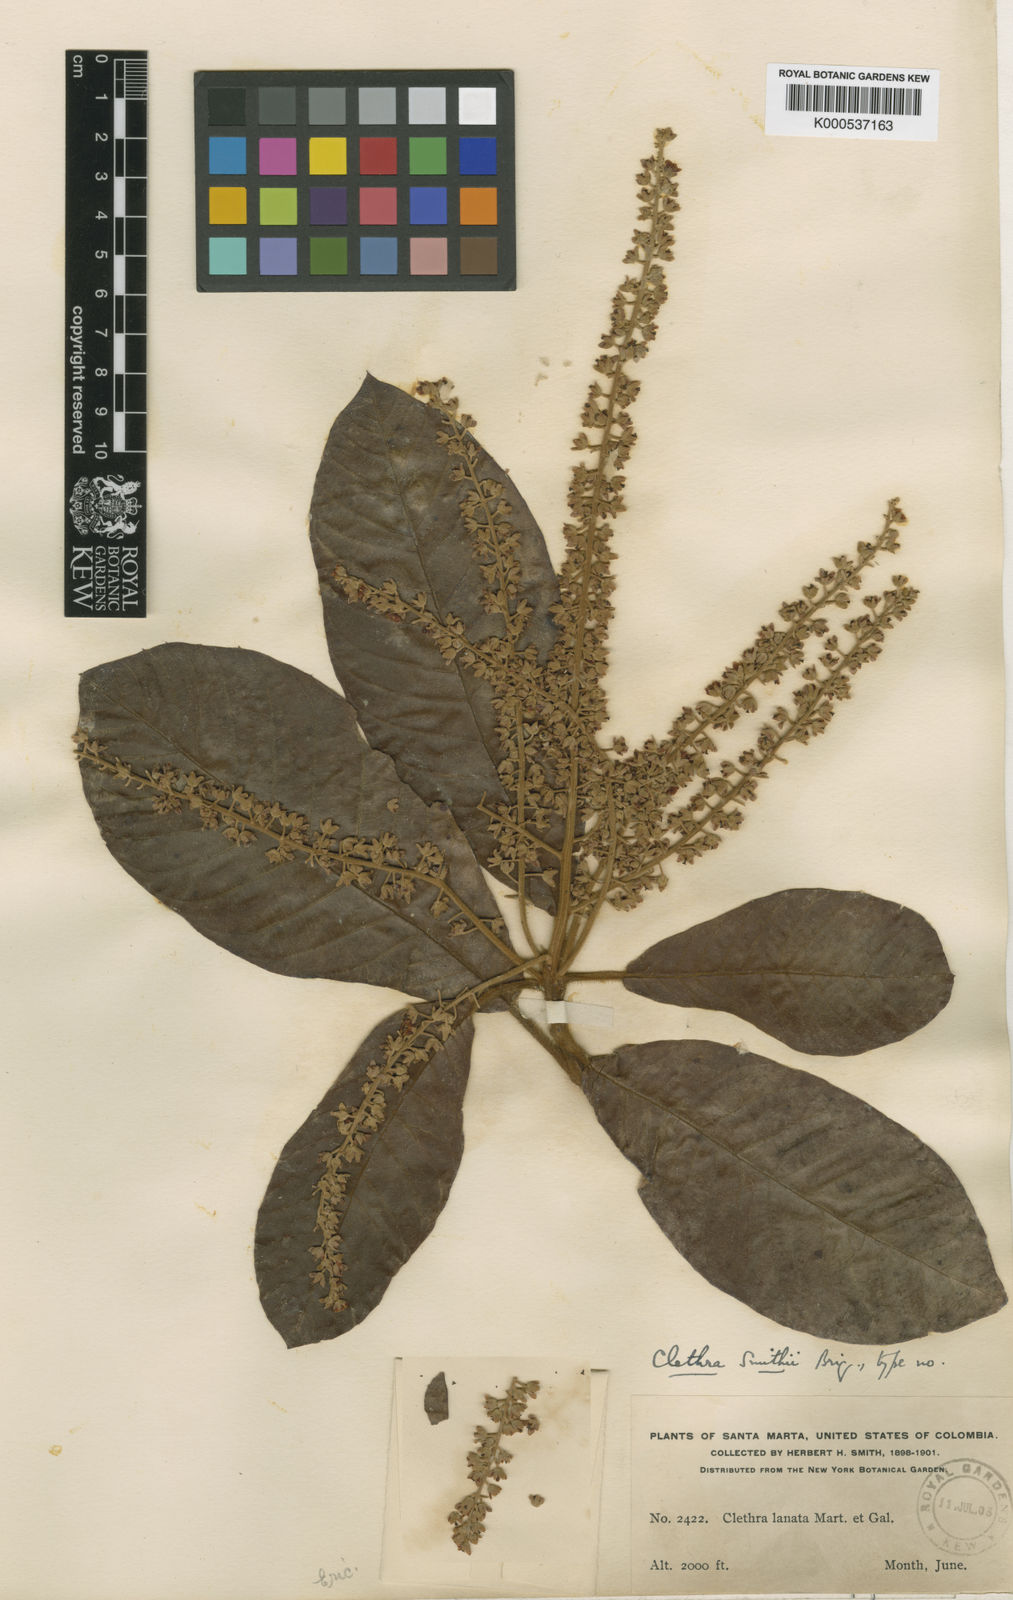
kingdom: Plantae
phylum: Tracheophyta
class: Magnoliopsida
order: Ericales
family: Clethraceae
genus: Clethra
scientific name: Clethra lanata
